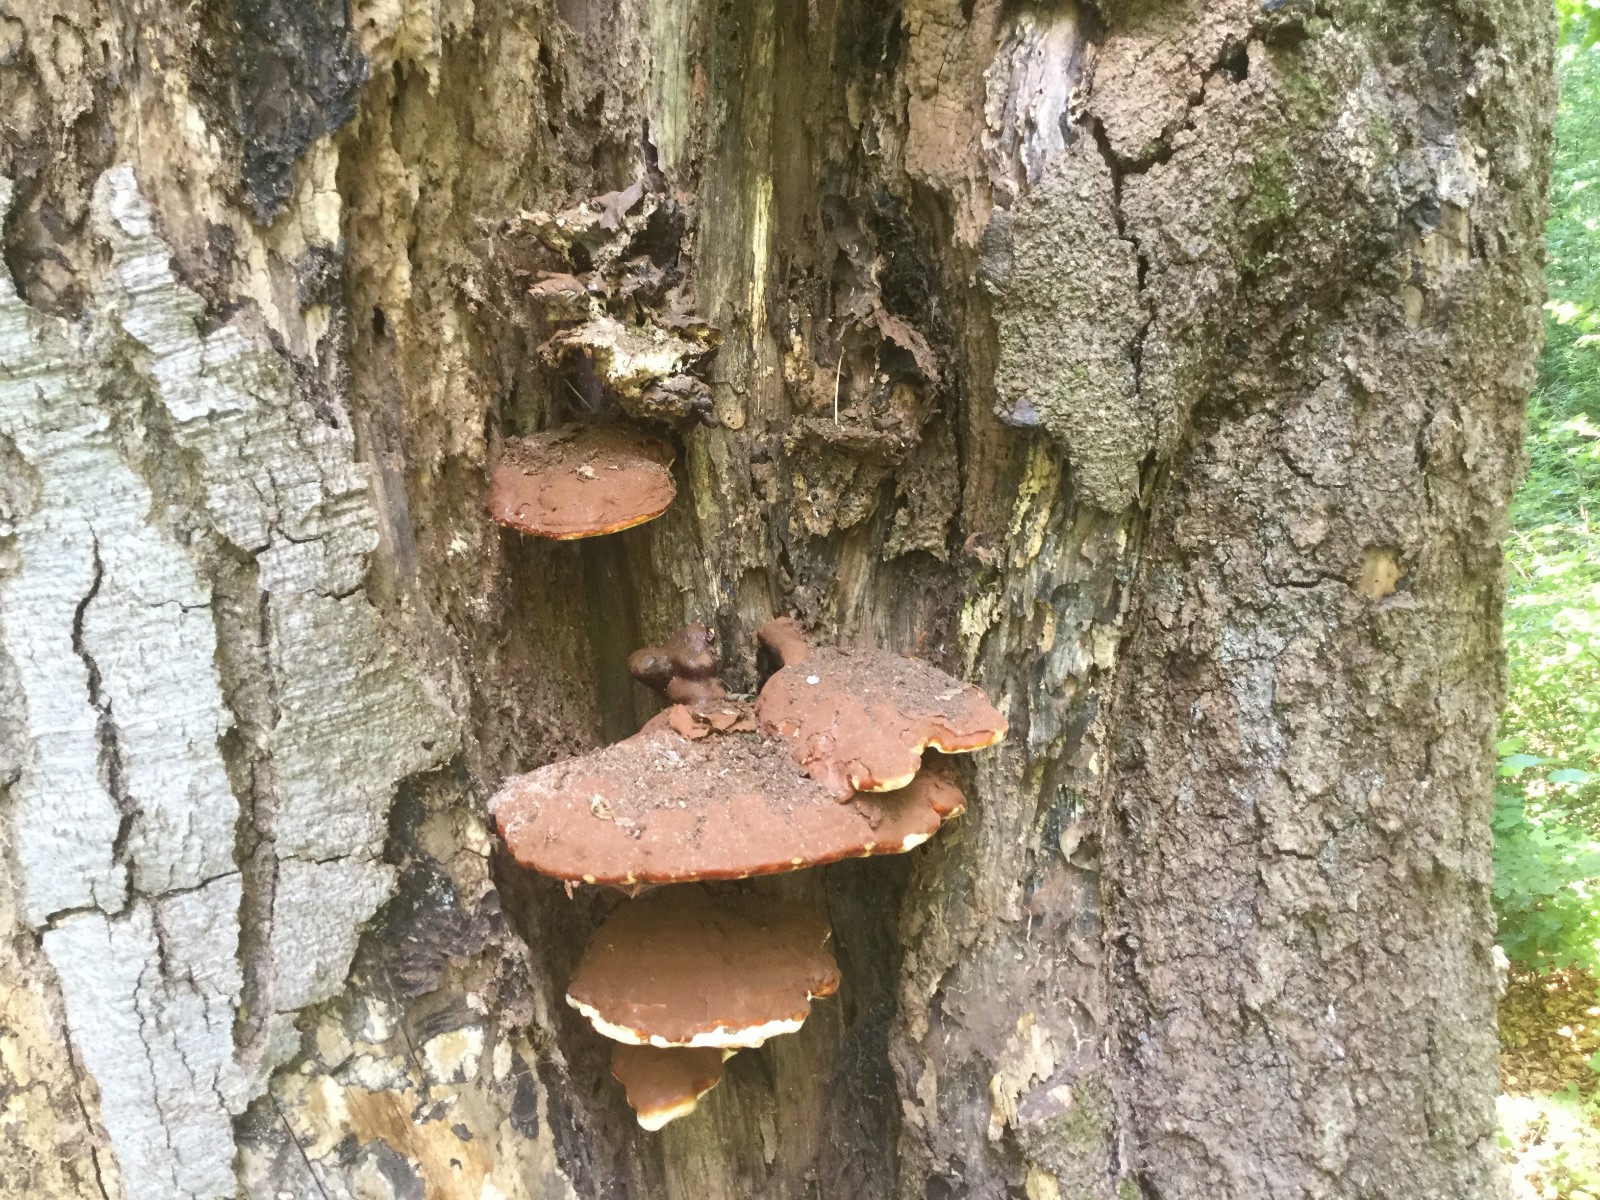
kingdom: Fungi
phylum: Basidiomycota
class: Agaricomycetes
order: Polyporales
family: Polyporaceae
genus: Ganoderma
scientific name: Ganoderma resinaceum
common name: gyldenbrun lakporesvamp
